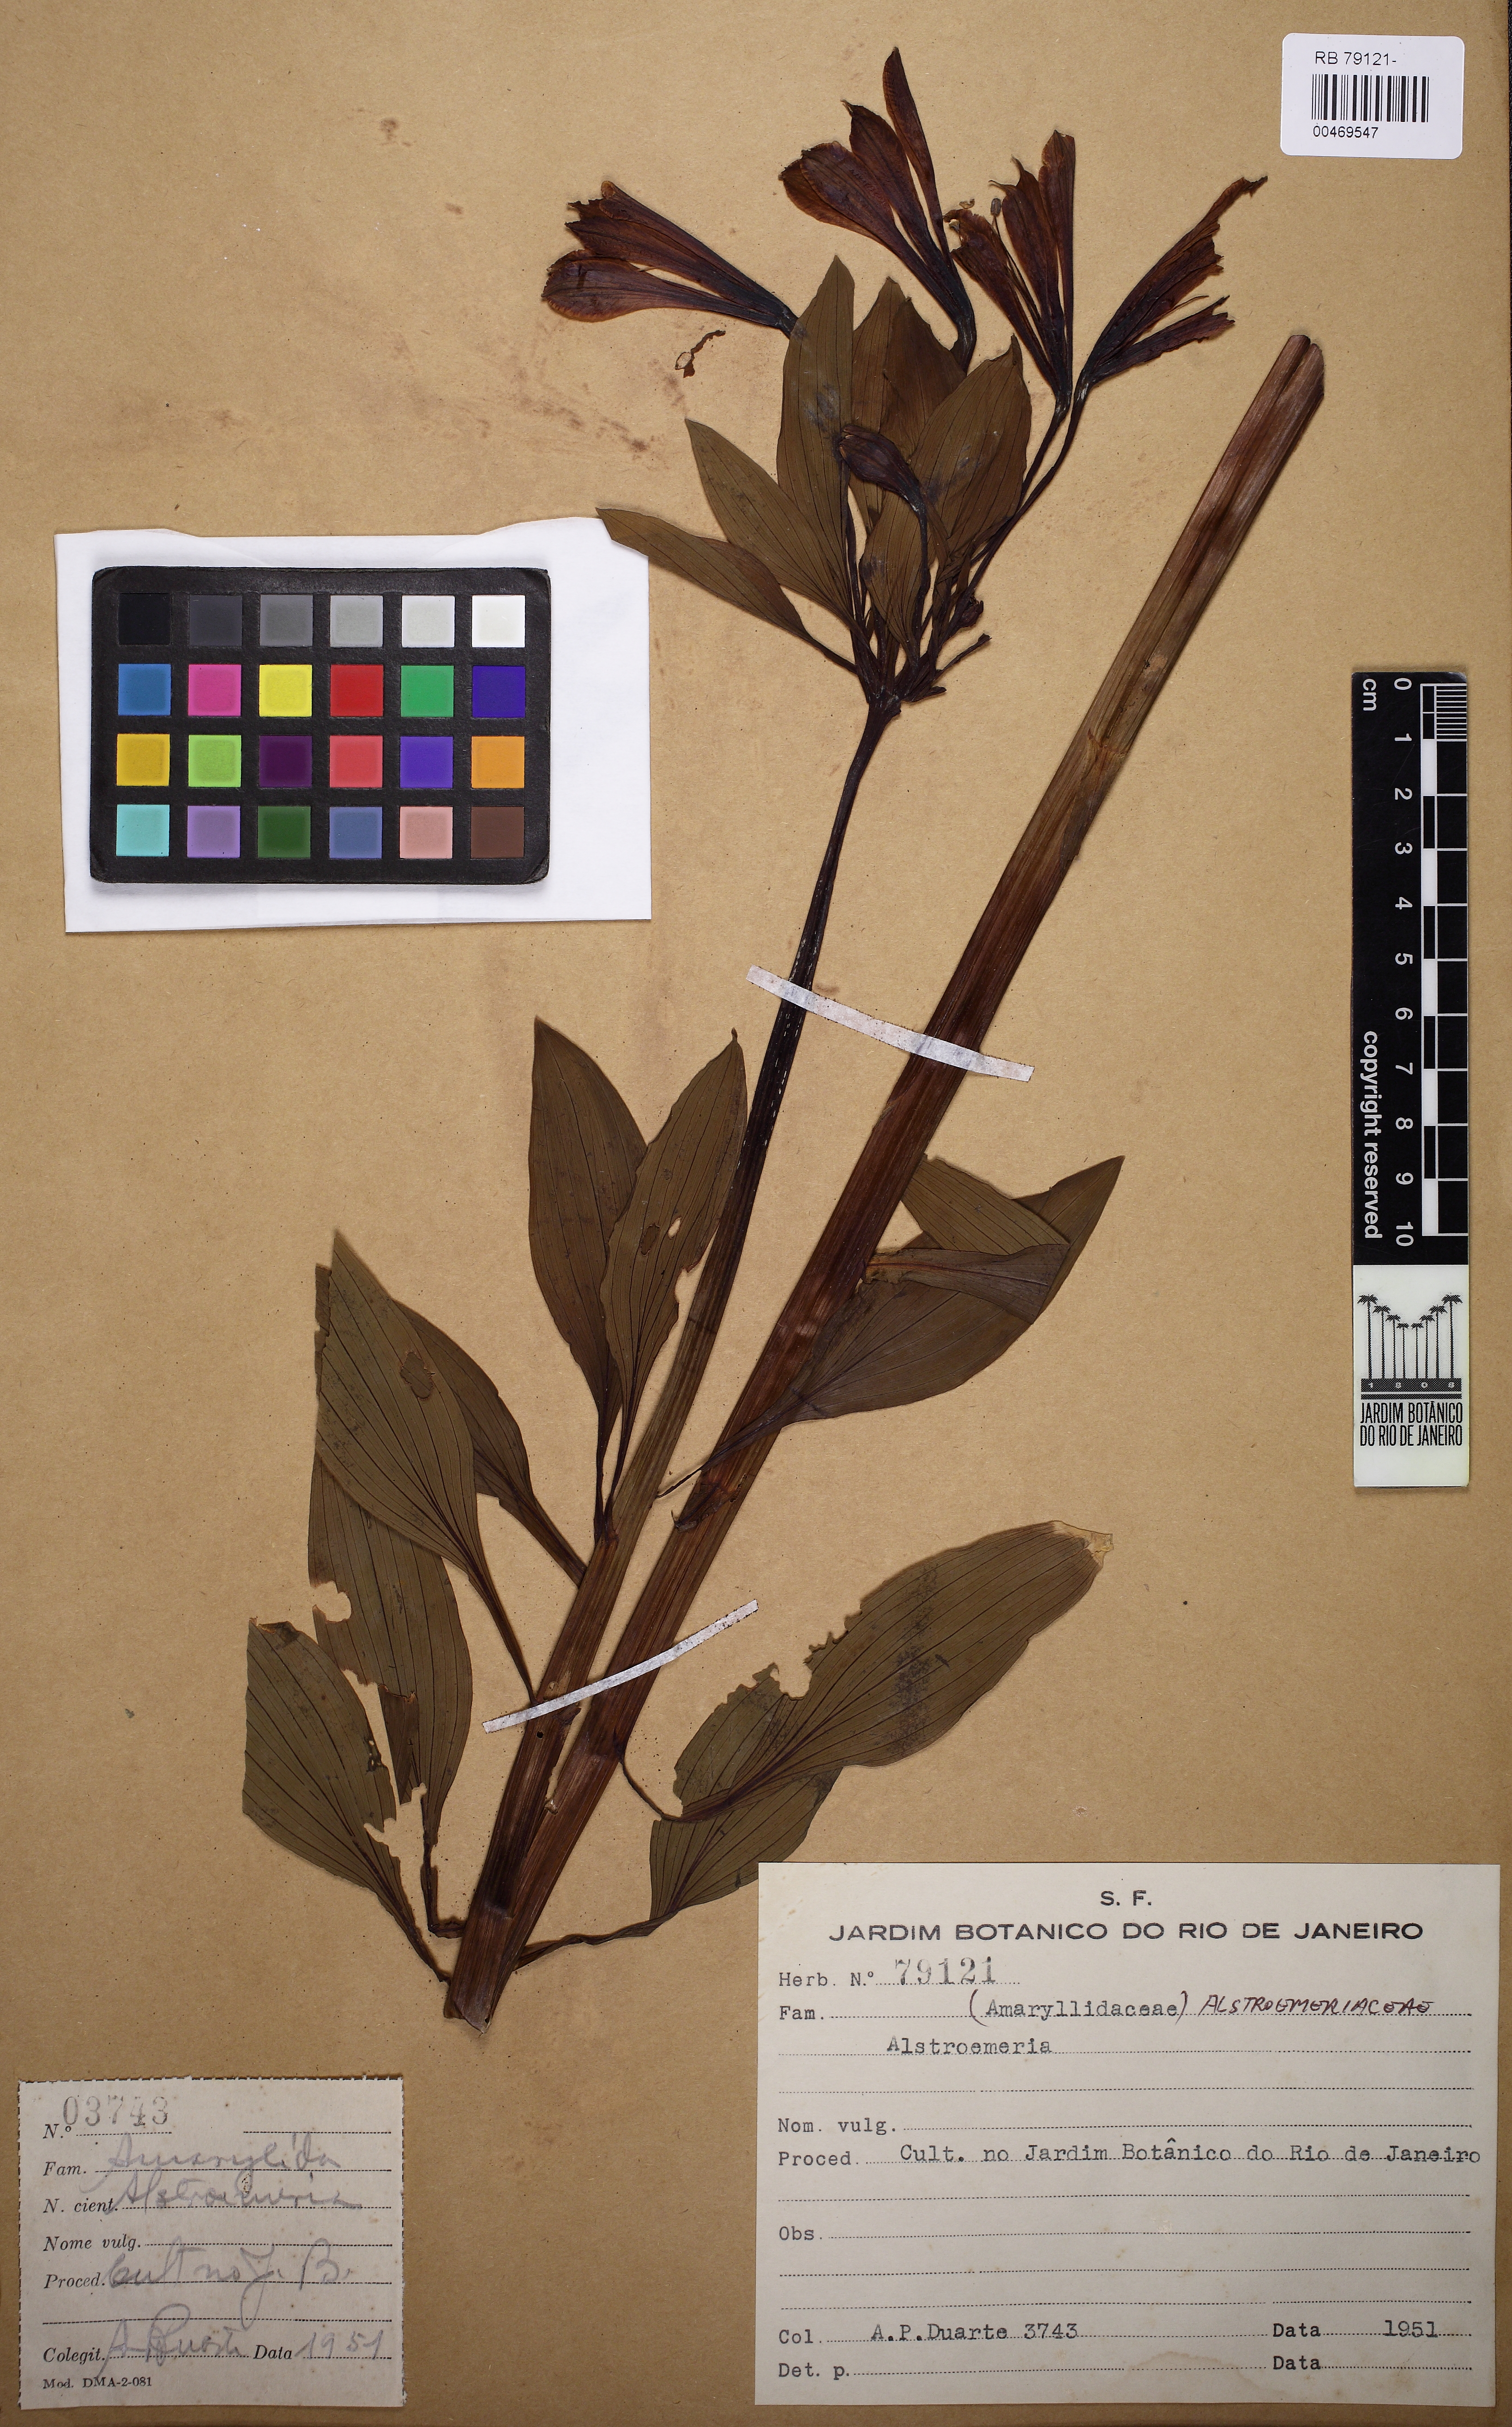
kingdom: Plantae
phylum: Tracheophyta
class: Liliopsida
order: Liliales
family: Alstroemeriaceae
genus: Alstroemeria
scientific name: Alstroemeria
